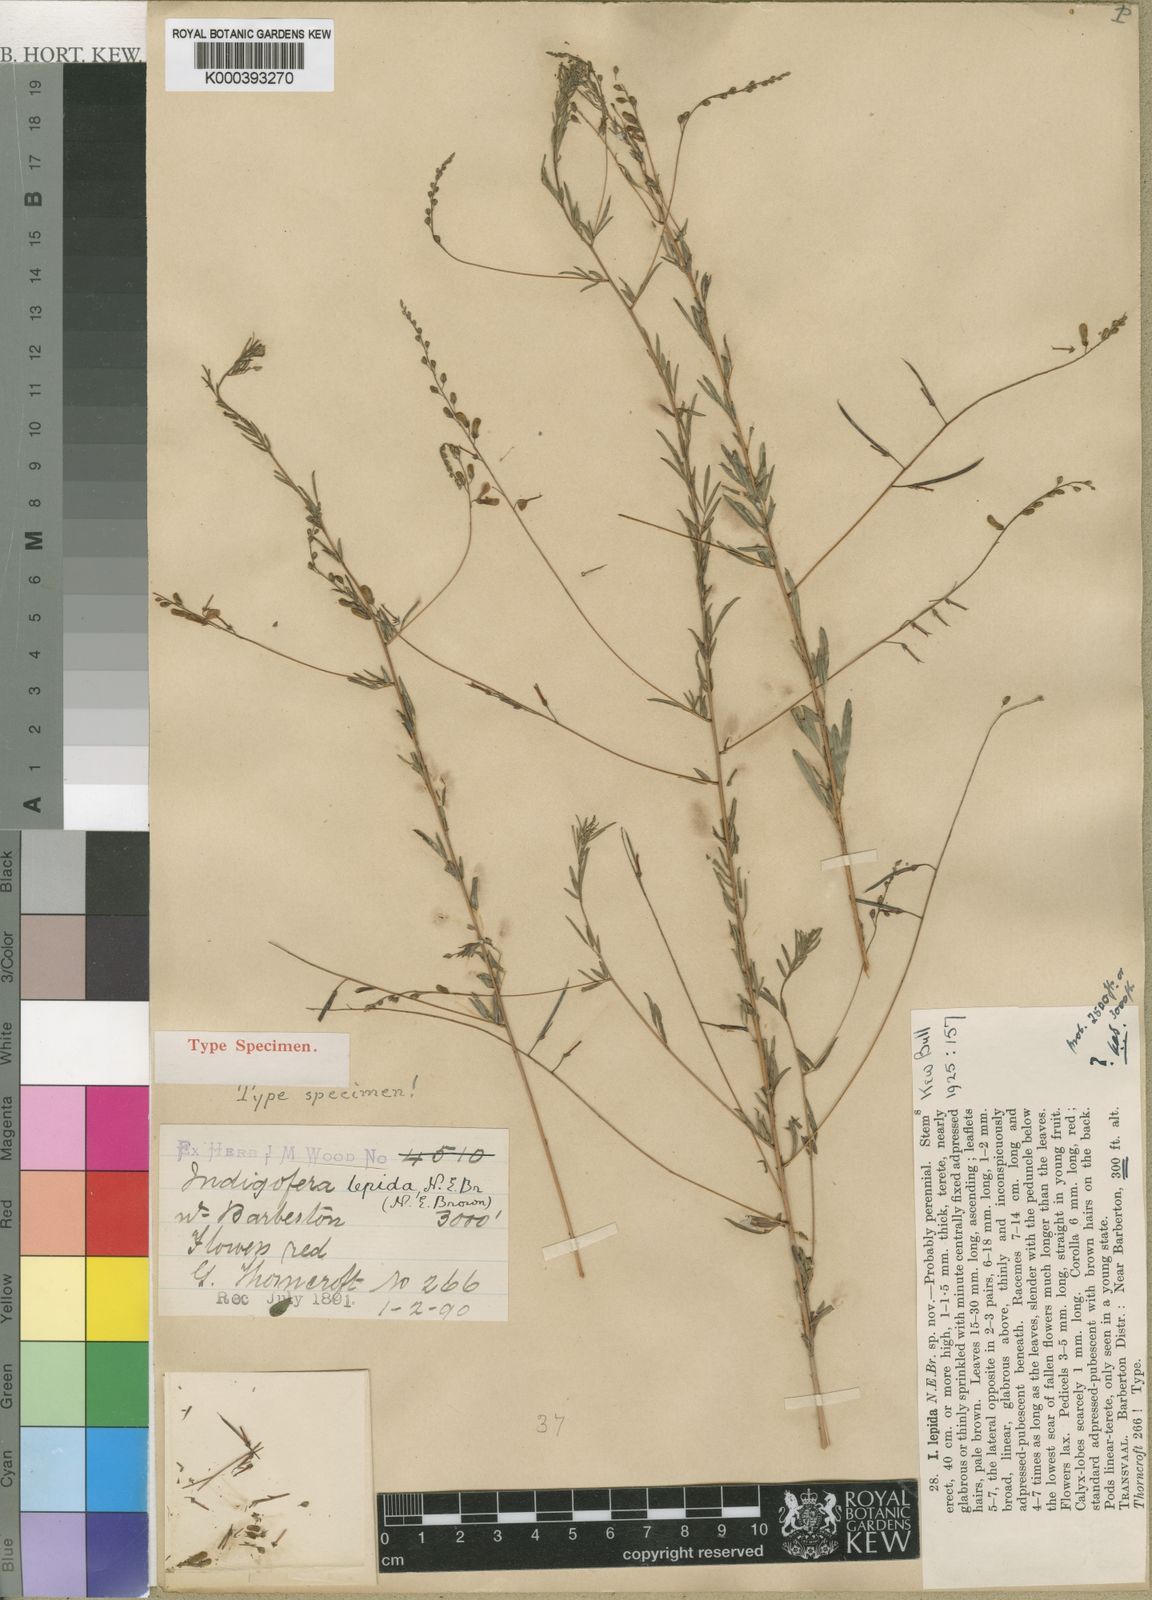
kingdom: Plantae
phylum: Tracheophyta
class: Magnoliopsida
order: Fabales
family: Fabaceae
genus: Indigofera
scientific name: Indigofera lepida
